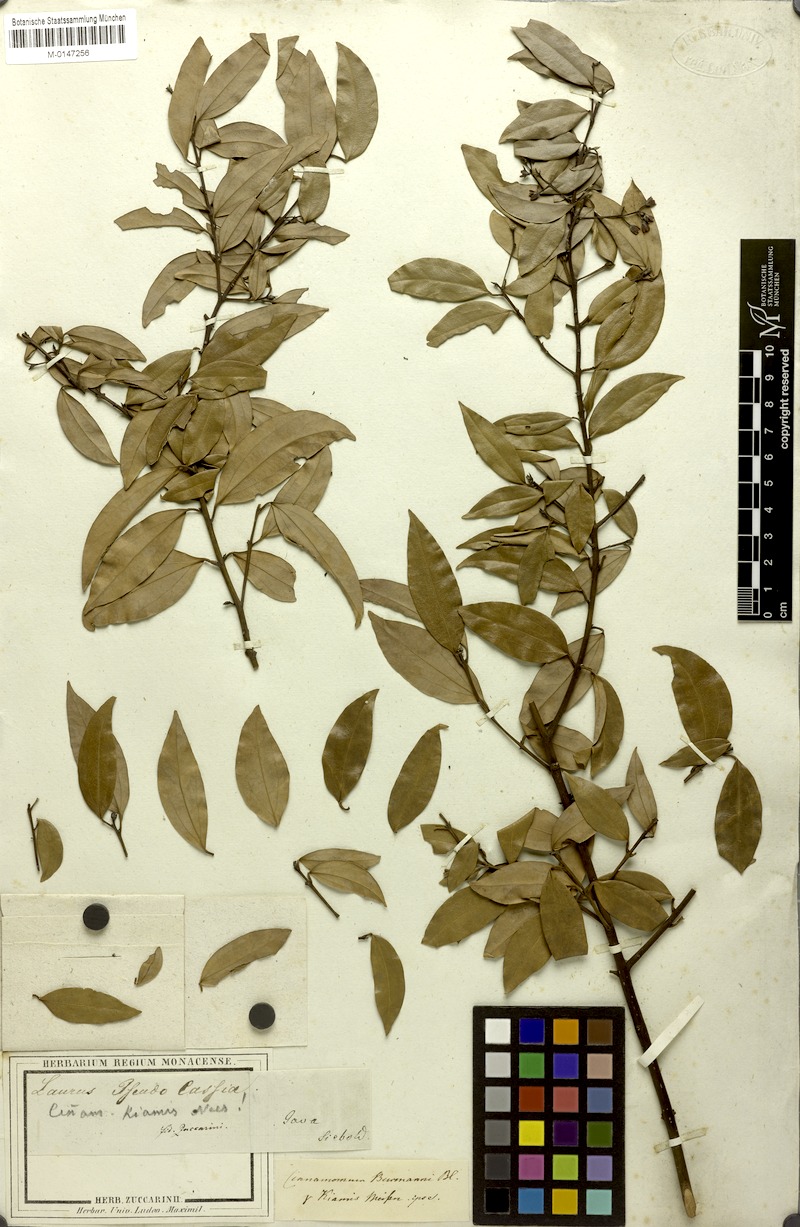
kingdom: Plantae
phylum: Tracheophyta
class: Magnoliopsida
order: Laurales
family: Lauraceae
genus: Cinnamomum
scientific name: Cinnamomum burmanni
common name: Padang cassia
